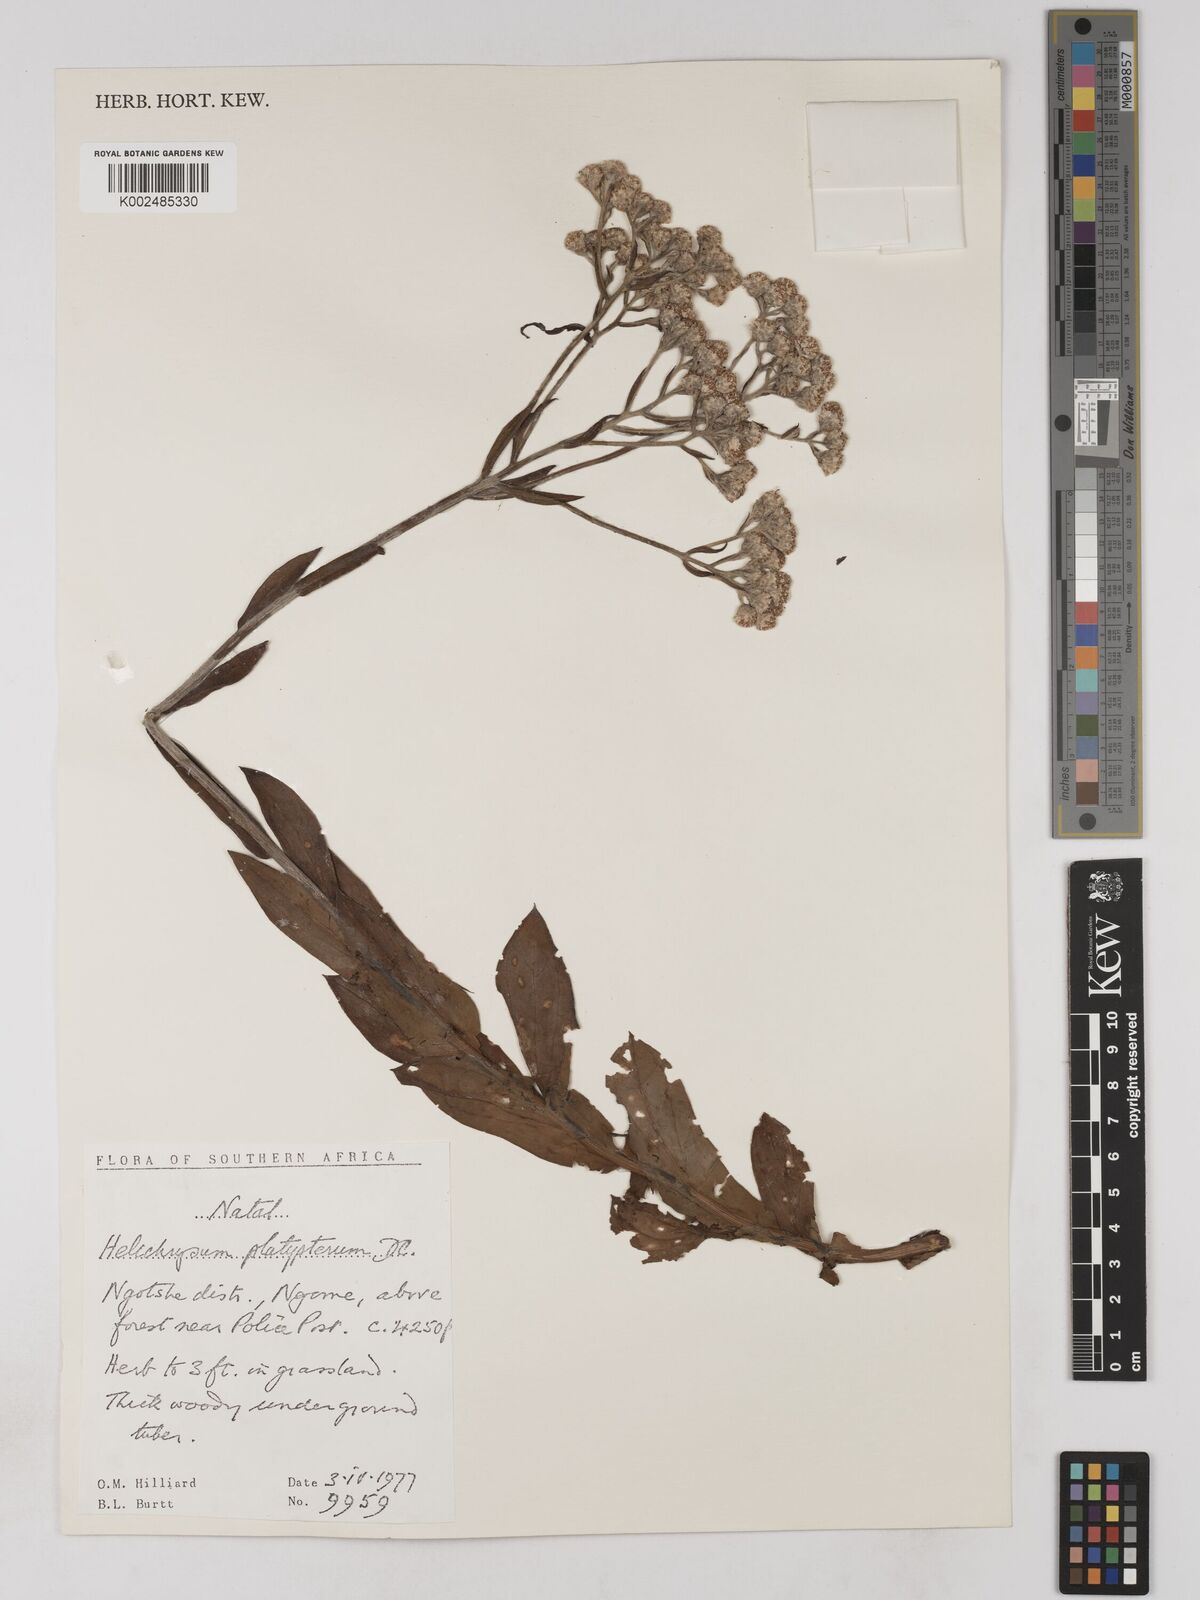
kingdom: Plantae
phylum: Tracheophyta
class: Magnoliopsida
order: Asterales
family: Asteraceae
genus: Helichrysum
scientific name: Helichrysum platypterum
